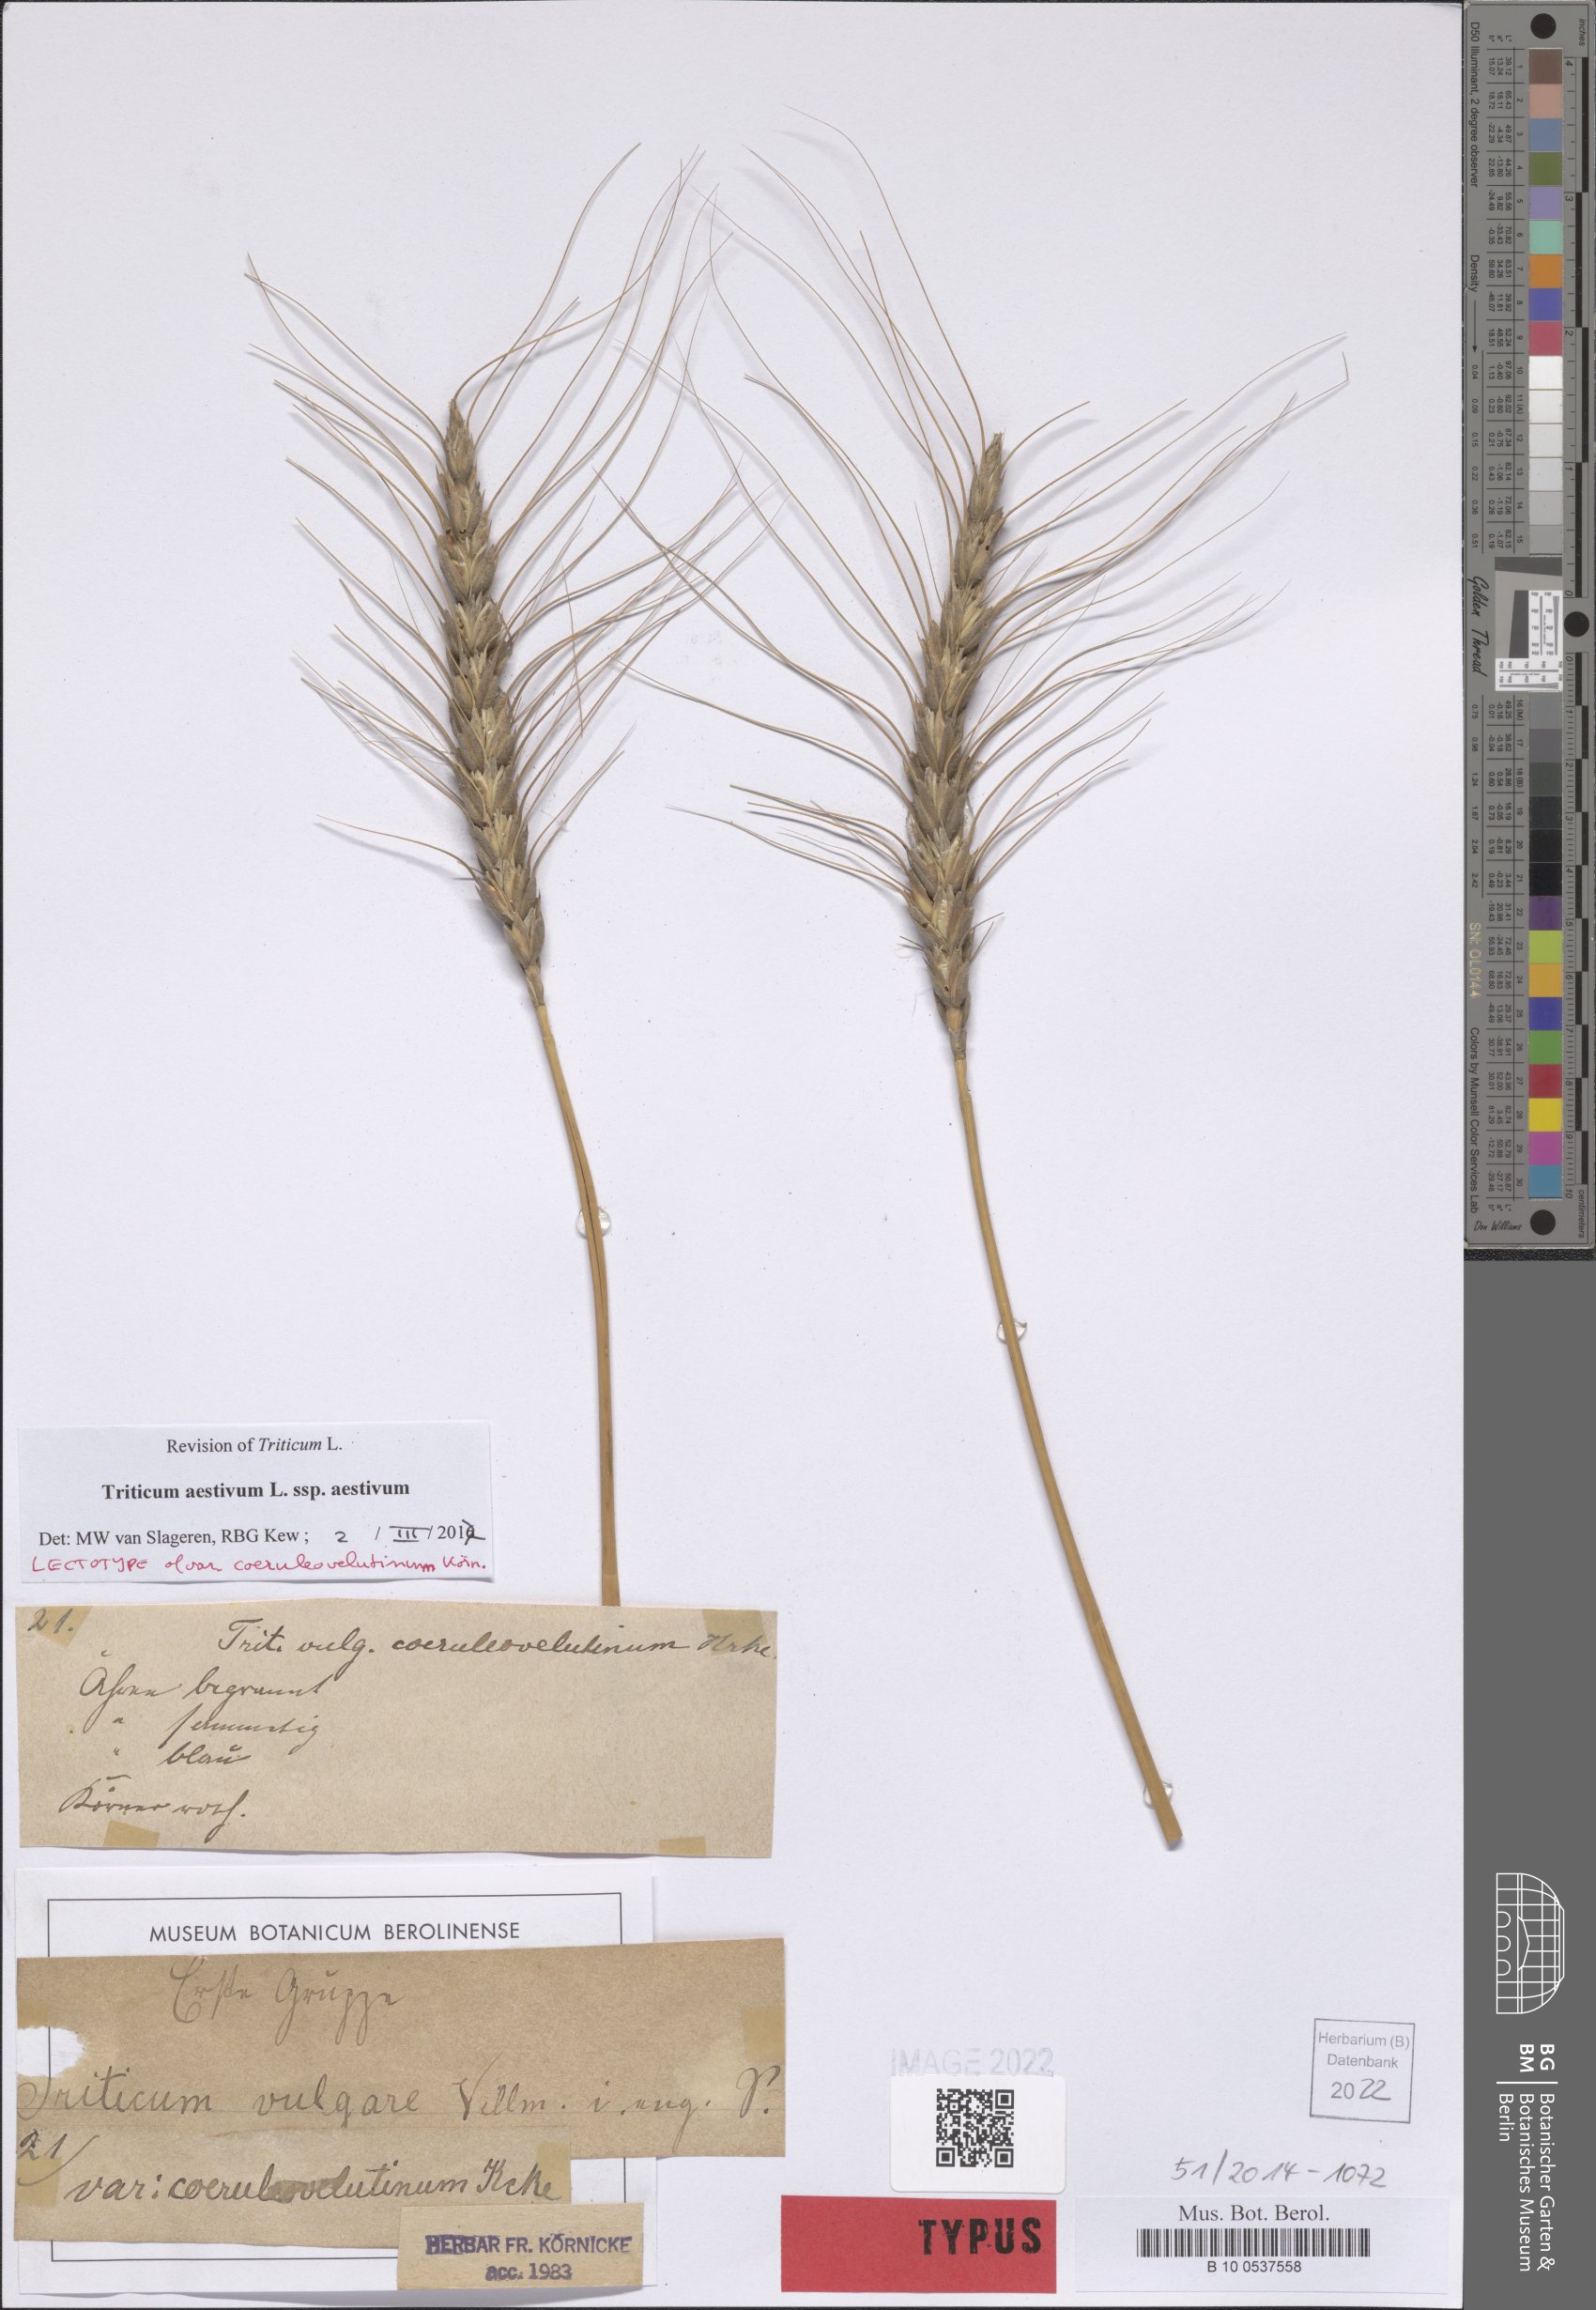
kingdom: Plantae
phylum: Tracheophyta
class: Liliopsida
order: Poales
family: Poaceae
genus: Triticum
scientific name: Triticum aestivum
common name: Common wheat
